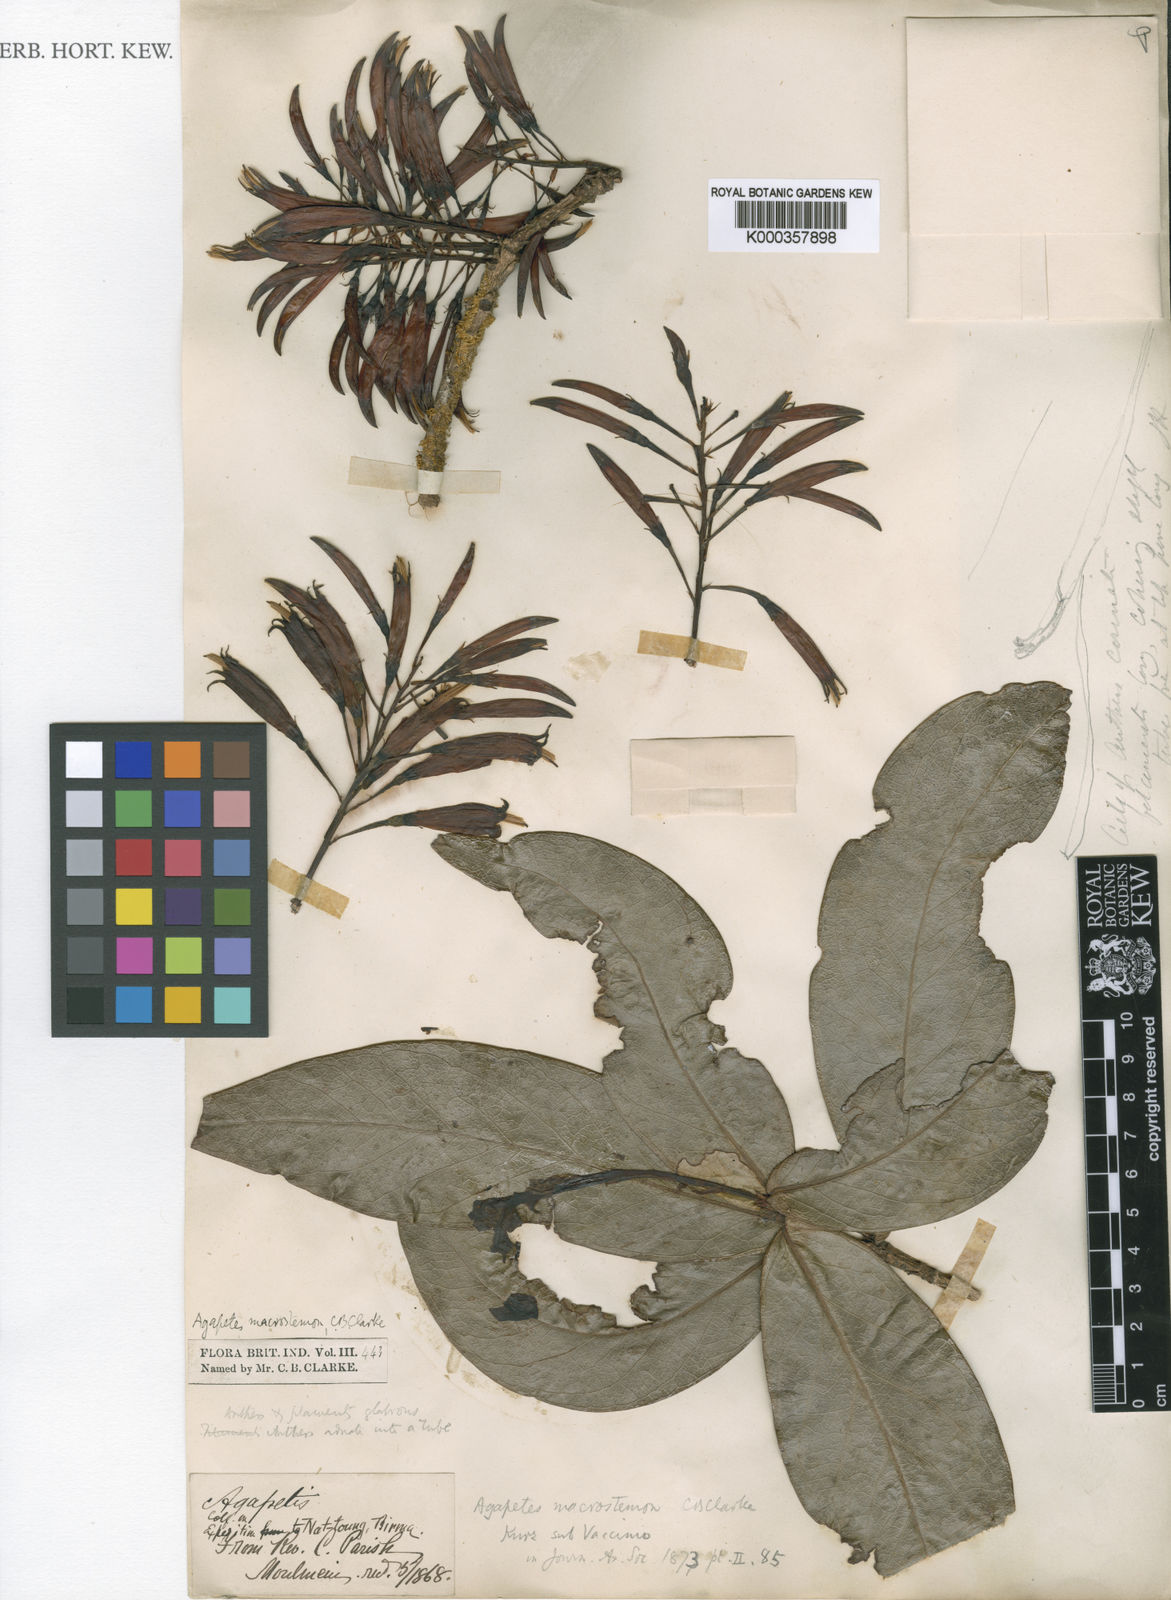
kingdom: Plantae
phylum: Tracheophyta
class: Magnoliopsida
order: Ericales
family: Ericaceae
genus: Agapetes
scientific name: Agapetes macrostemon
